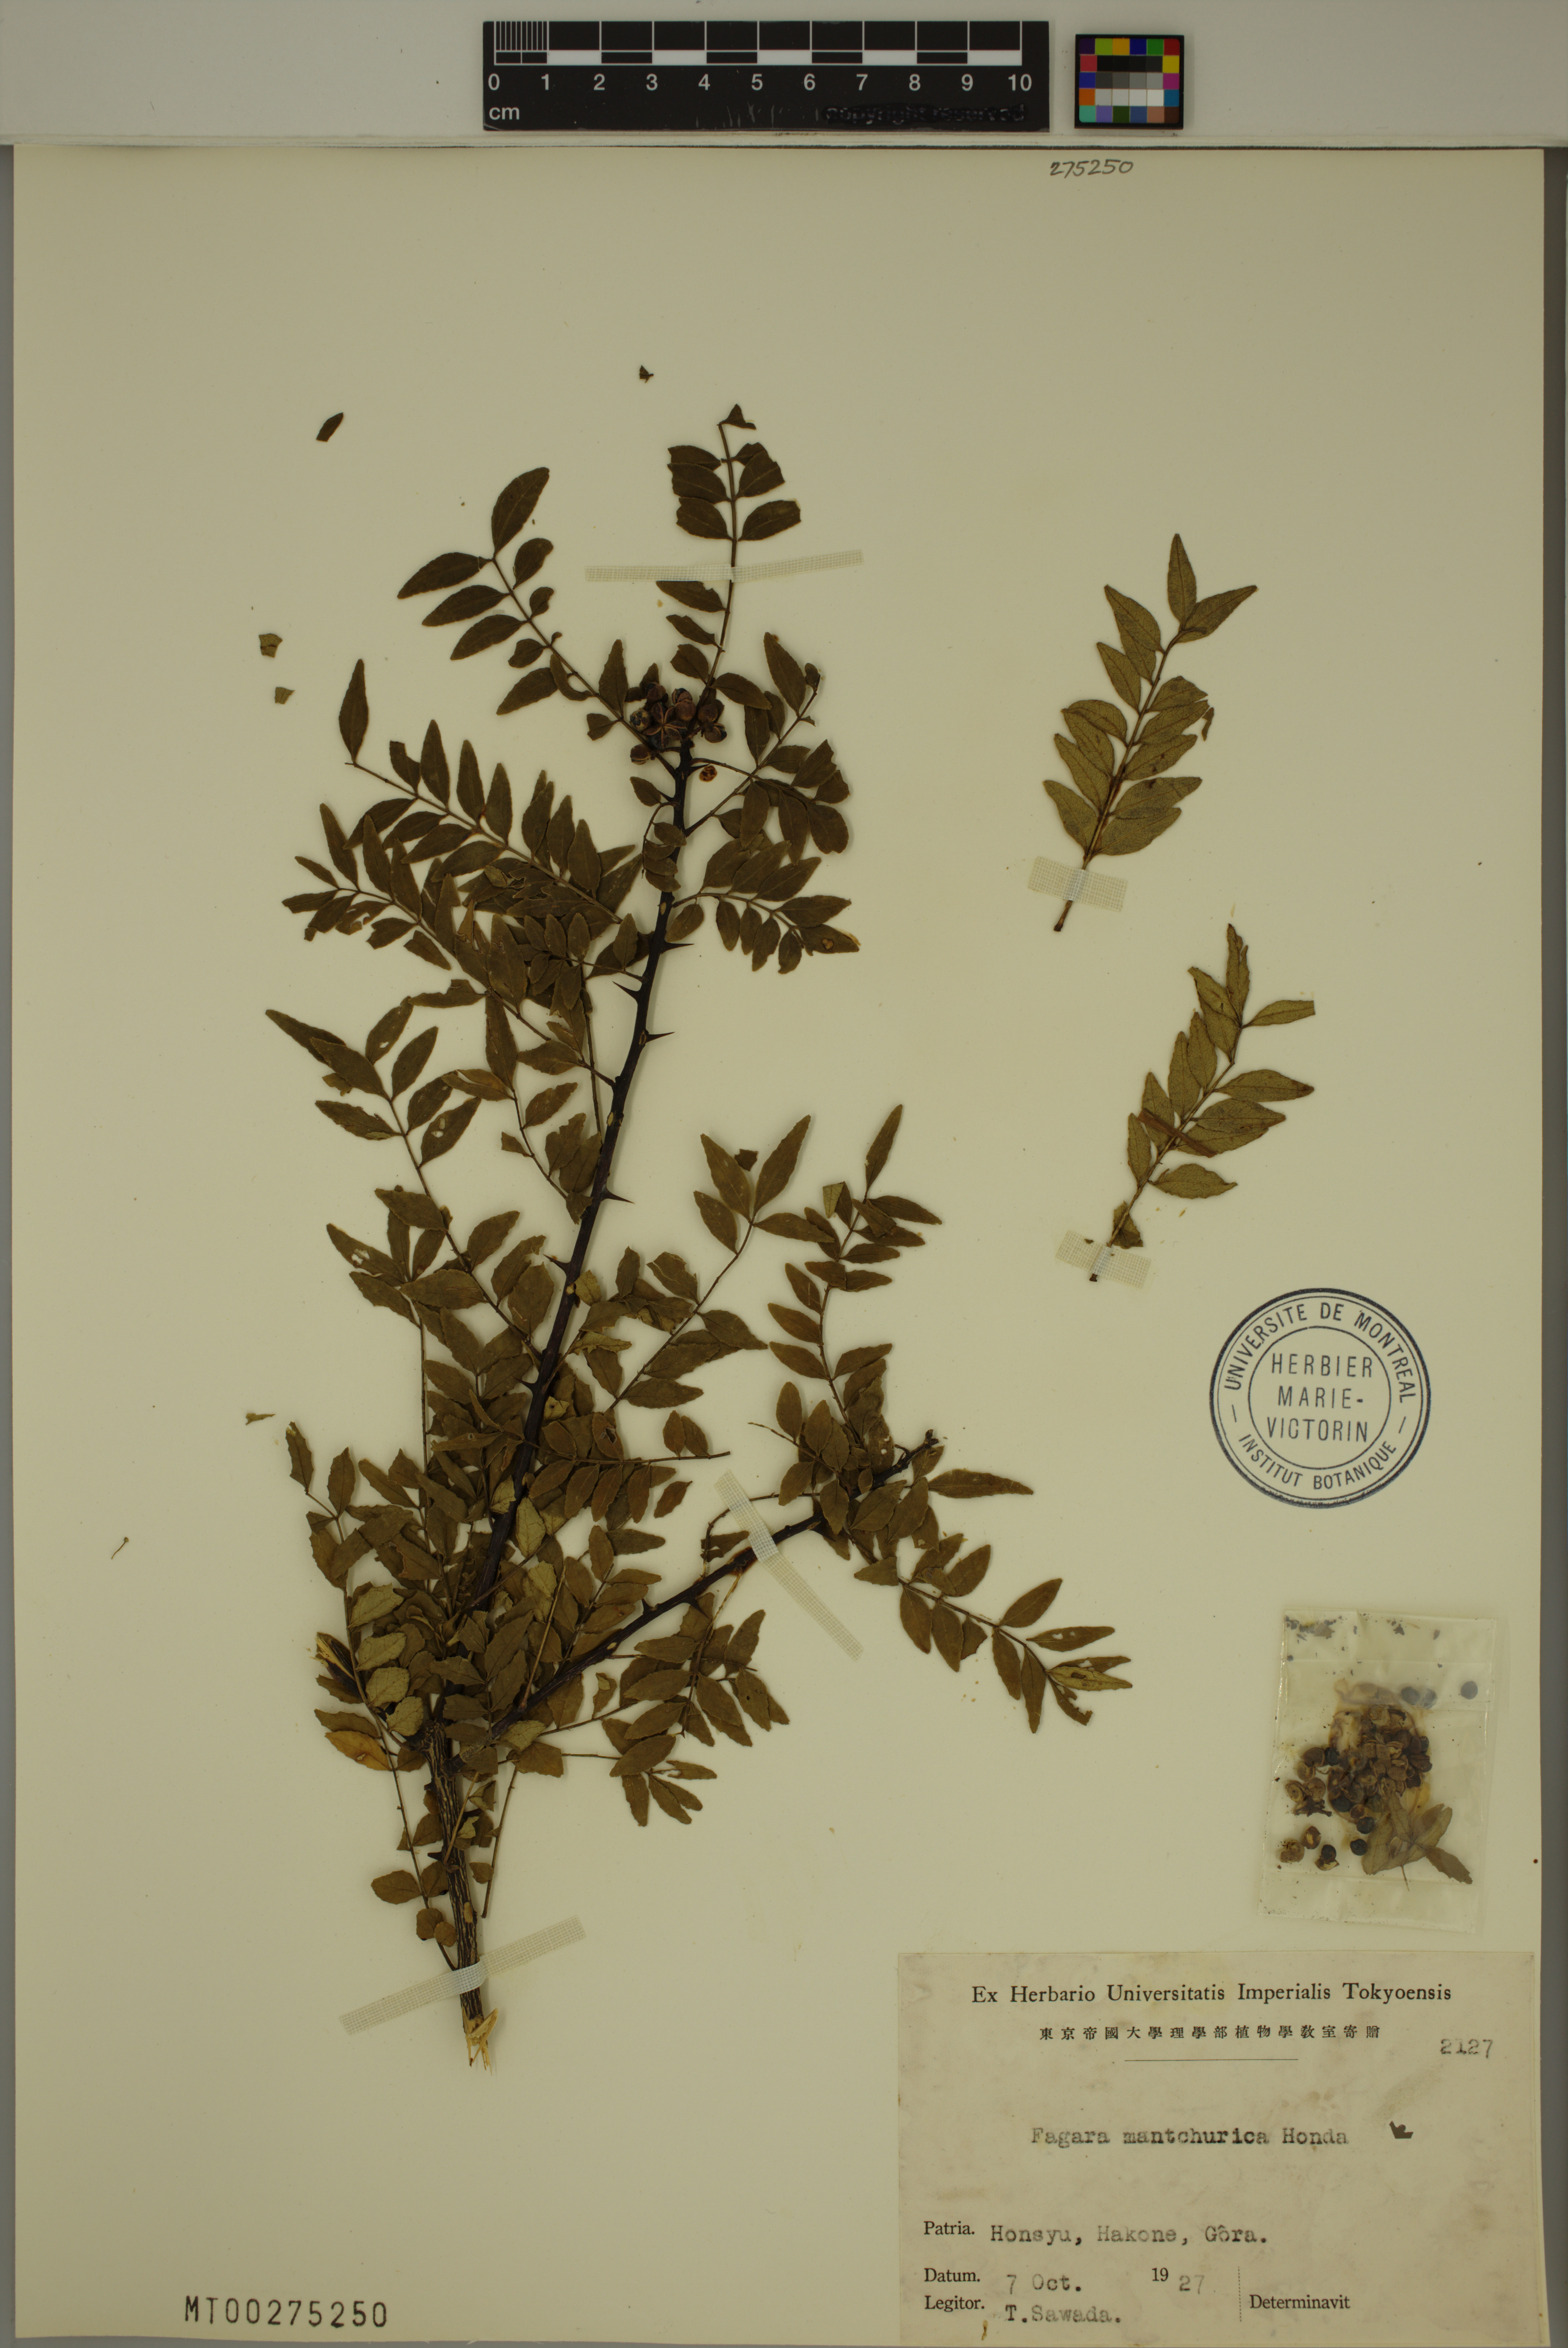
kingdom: Plantae
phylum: Tracheophyta
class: Magnoliopsida
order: Sapindales
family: Rutaceae
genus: Zanthoxylum
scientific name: Zanthoxylum schinifolium
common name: Sichuan-pepper
